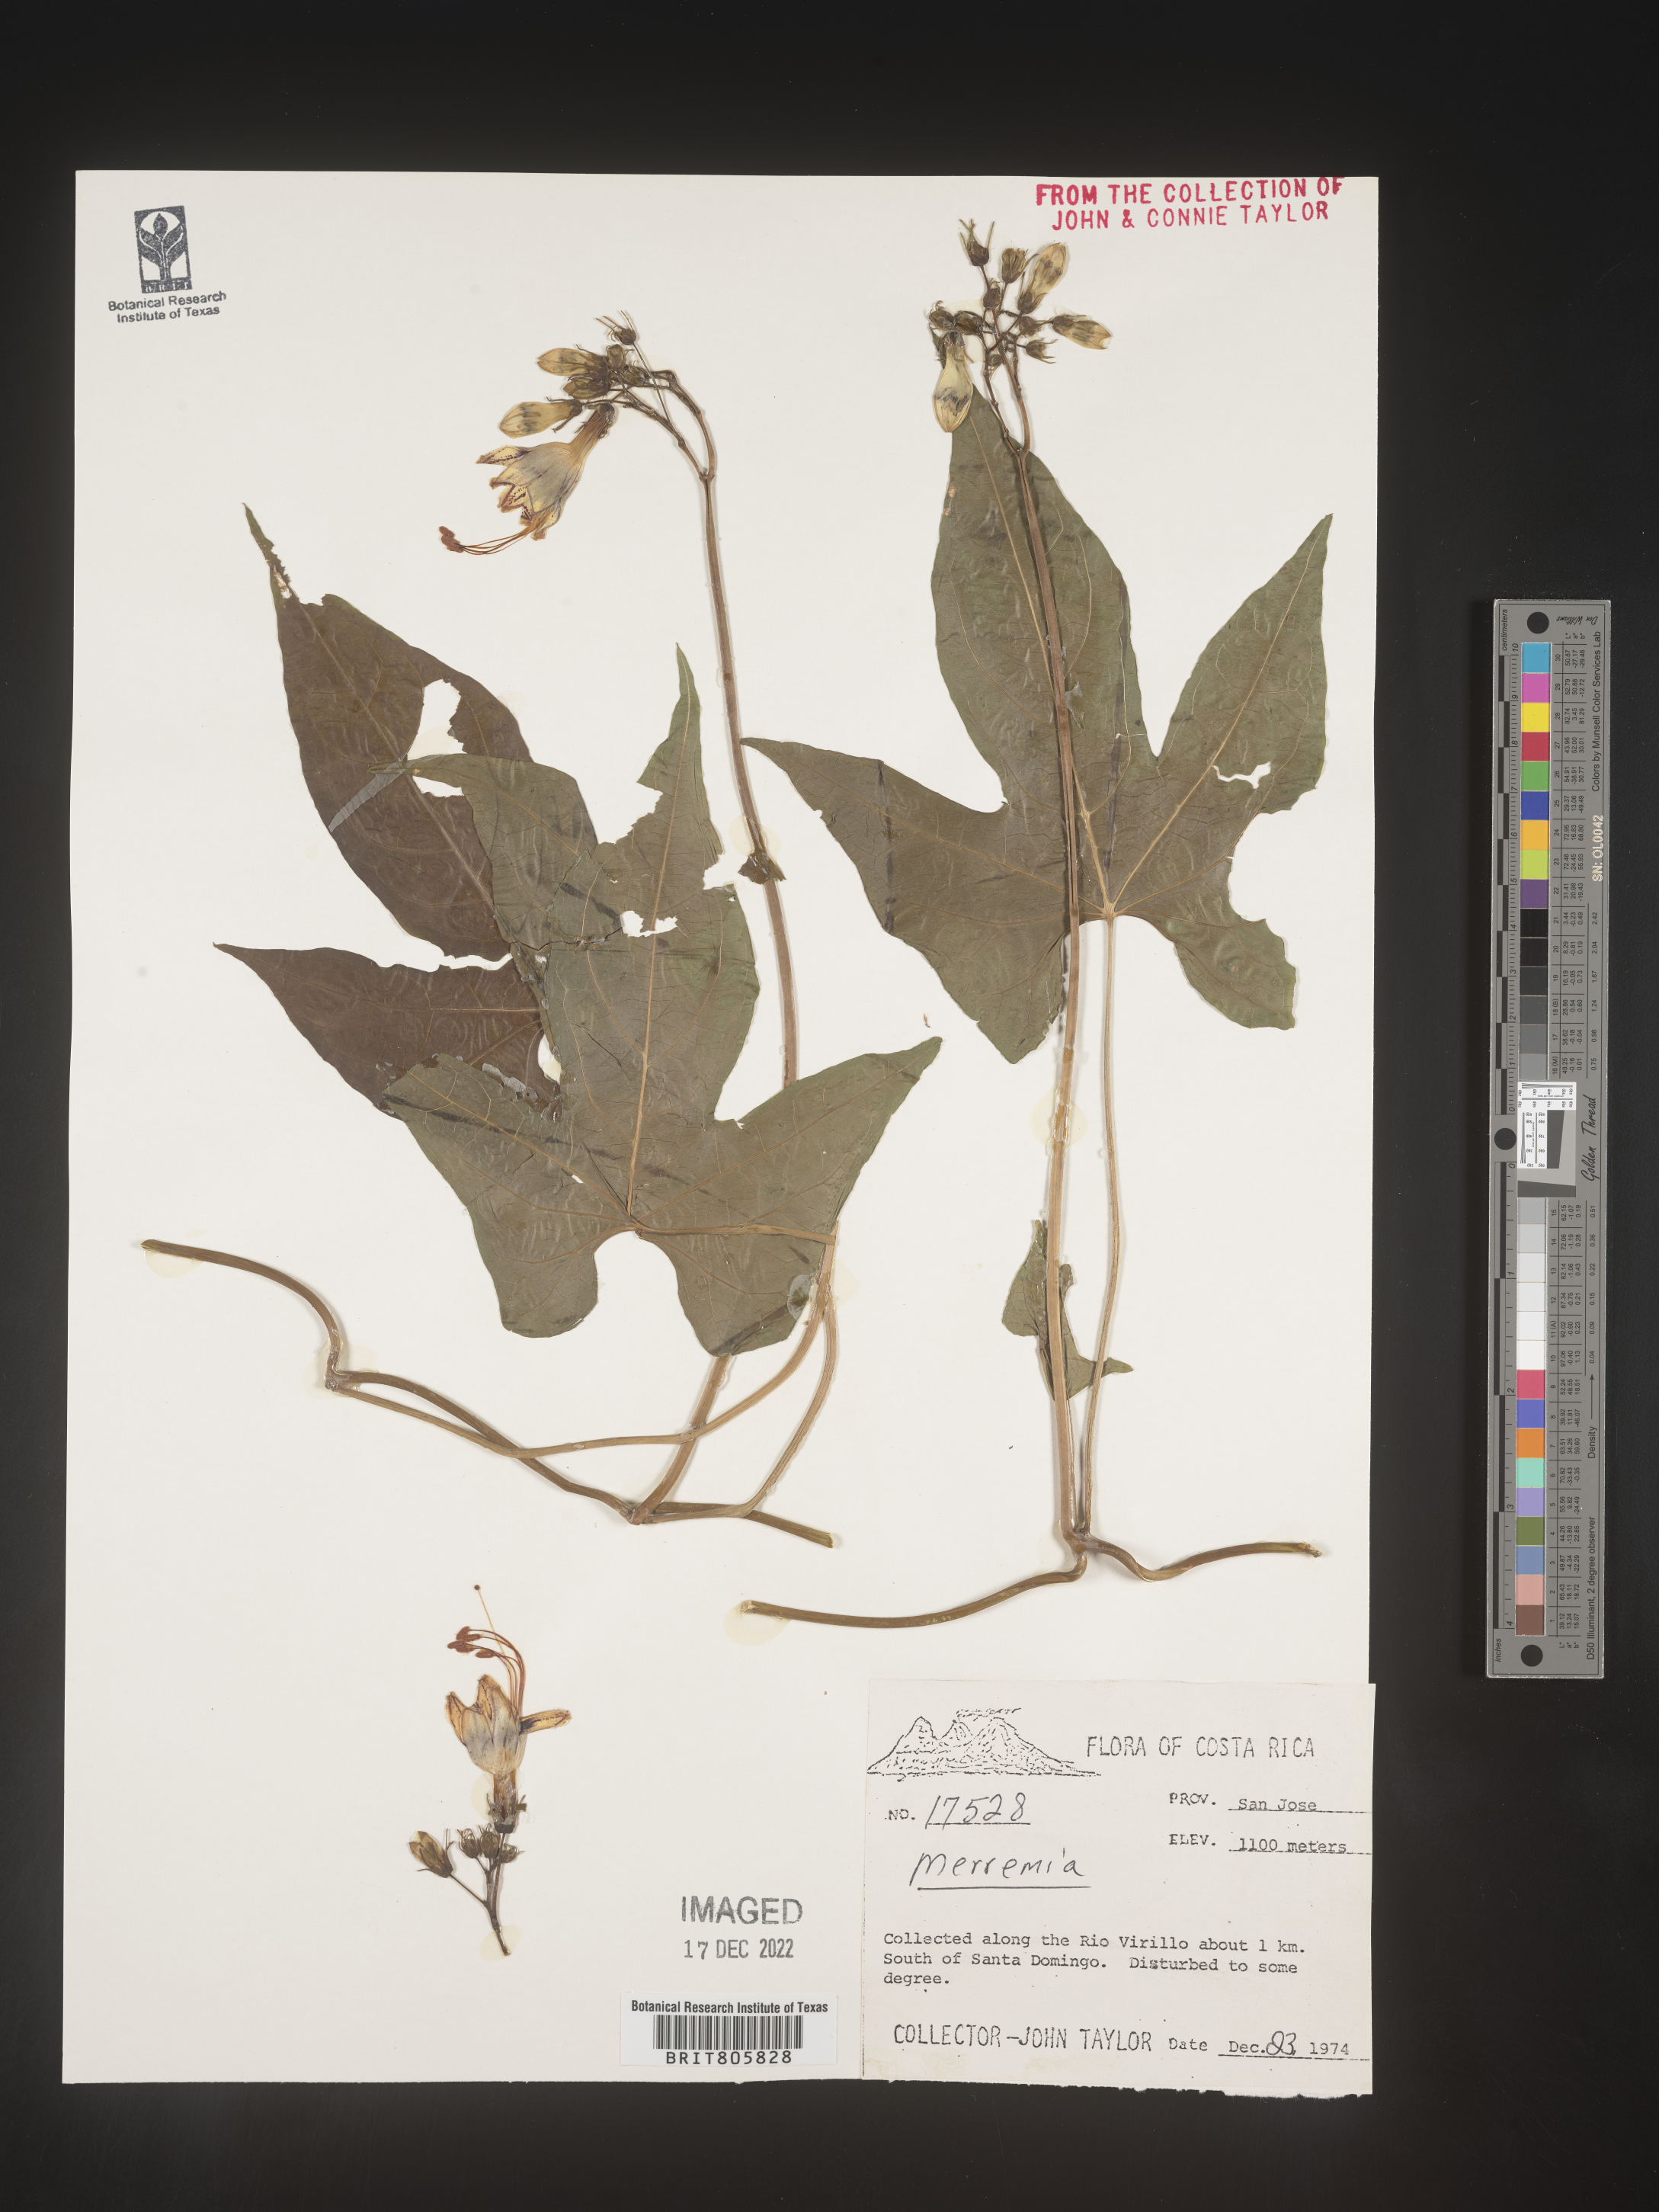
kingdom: Plantae
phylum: Tracheophyta
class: Magnoliopsida
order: Solanales
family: Convolvulaceae
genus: Merremia
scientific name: Merremia
